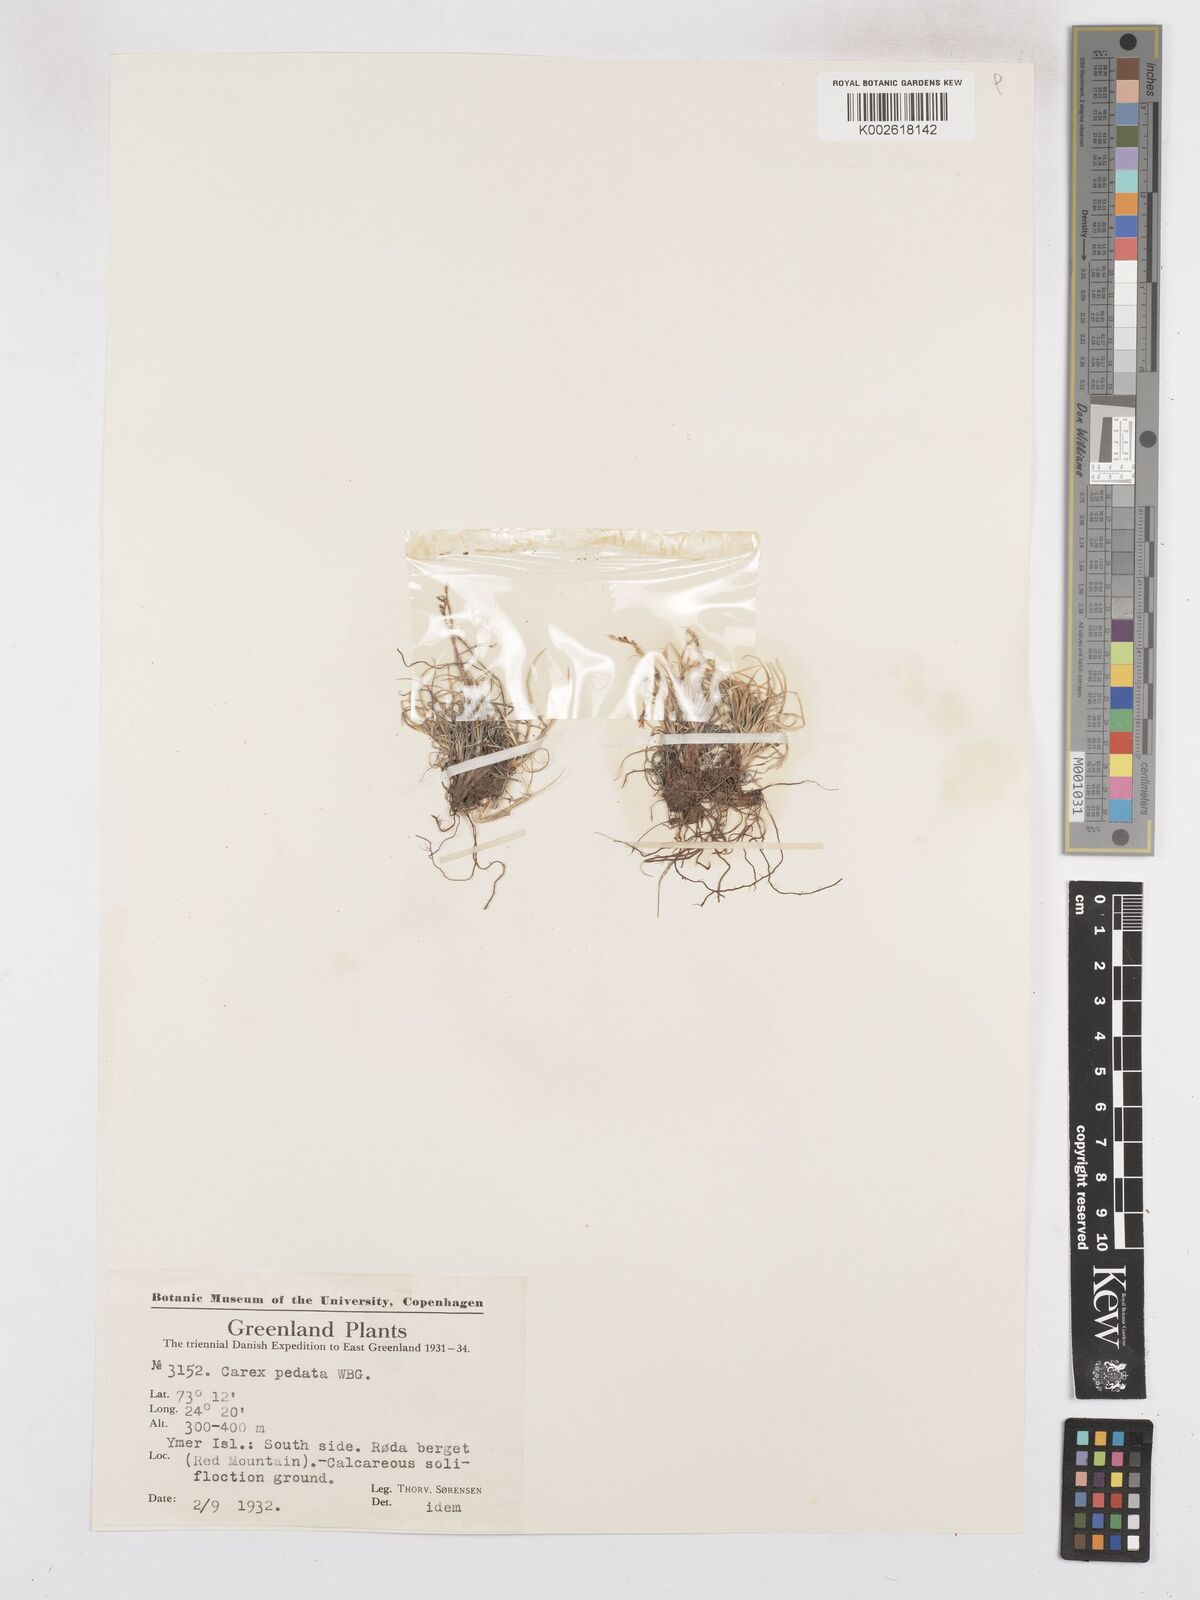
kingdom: Plantae
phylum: Tracheophyta
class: Liliopsida
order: Poales
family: Cyperaceae
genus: Carex
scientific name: Carex glacialis
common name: Newfoundland sedge
